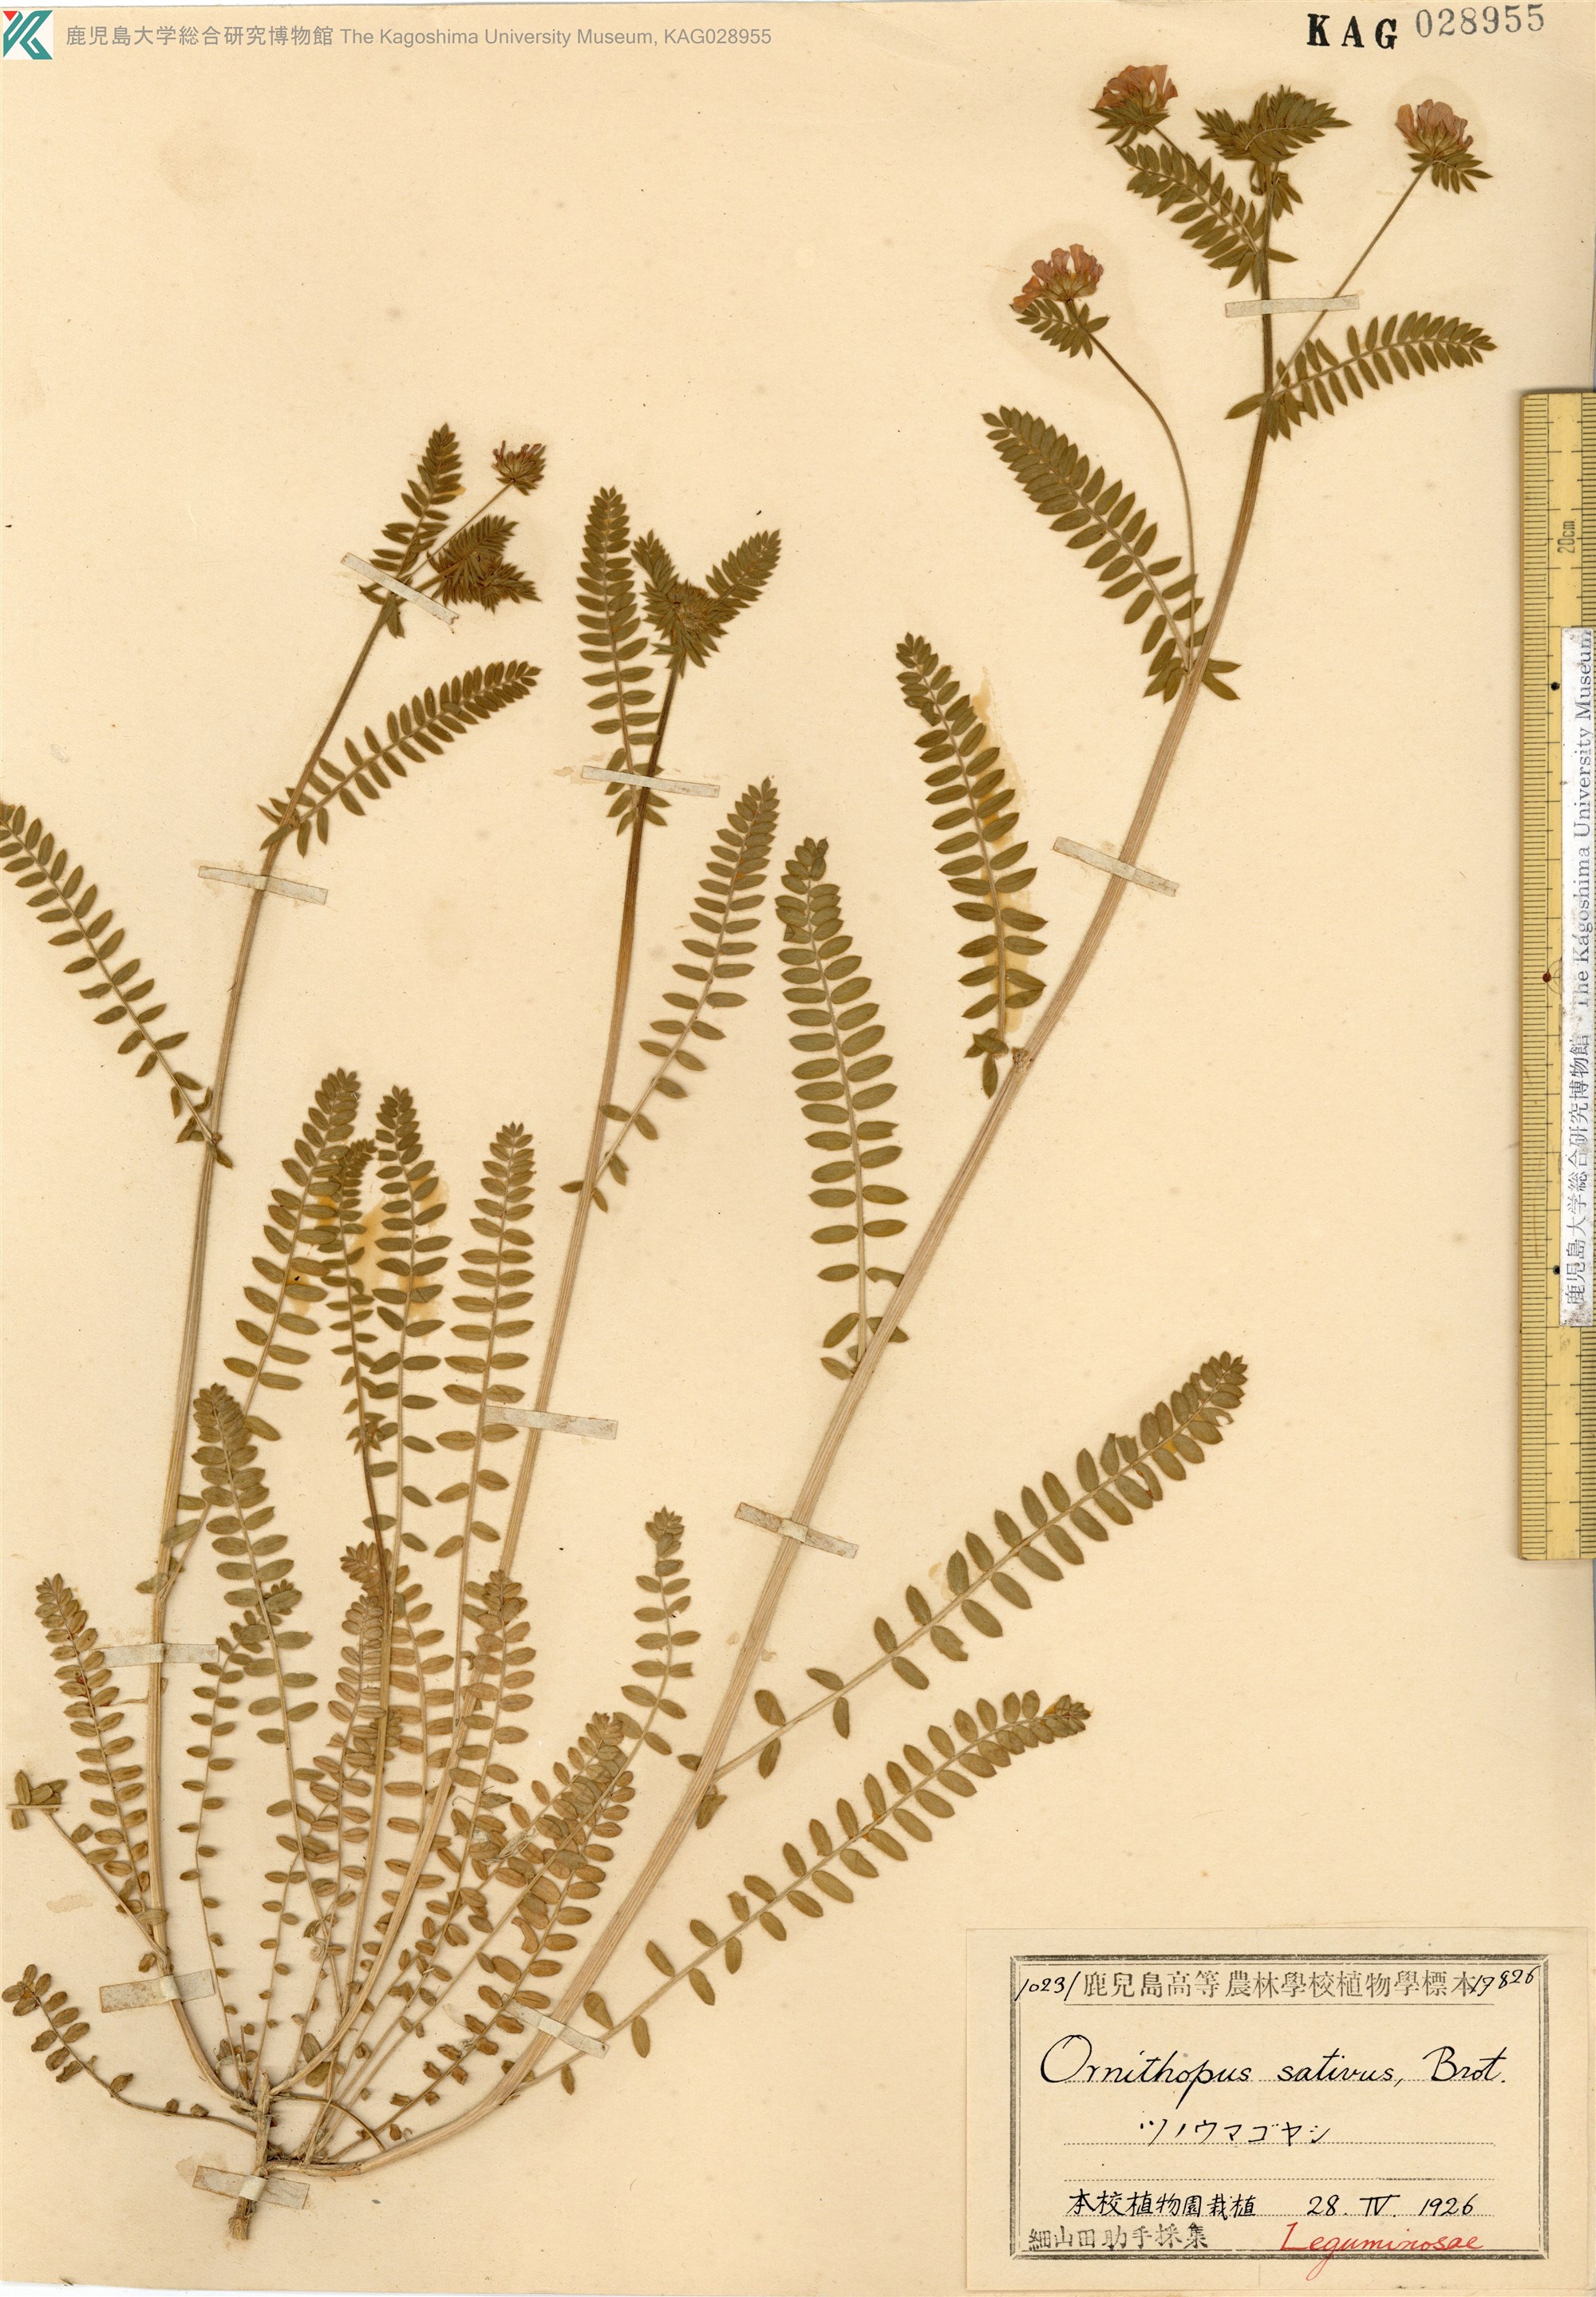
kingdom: Plantae
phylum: Tracheophyta
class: Magnoliopsida
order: Fabales
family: Fabaceae
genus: Ornithopus
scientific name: Ornithopus sativus
